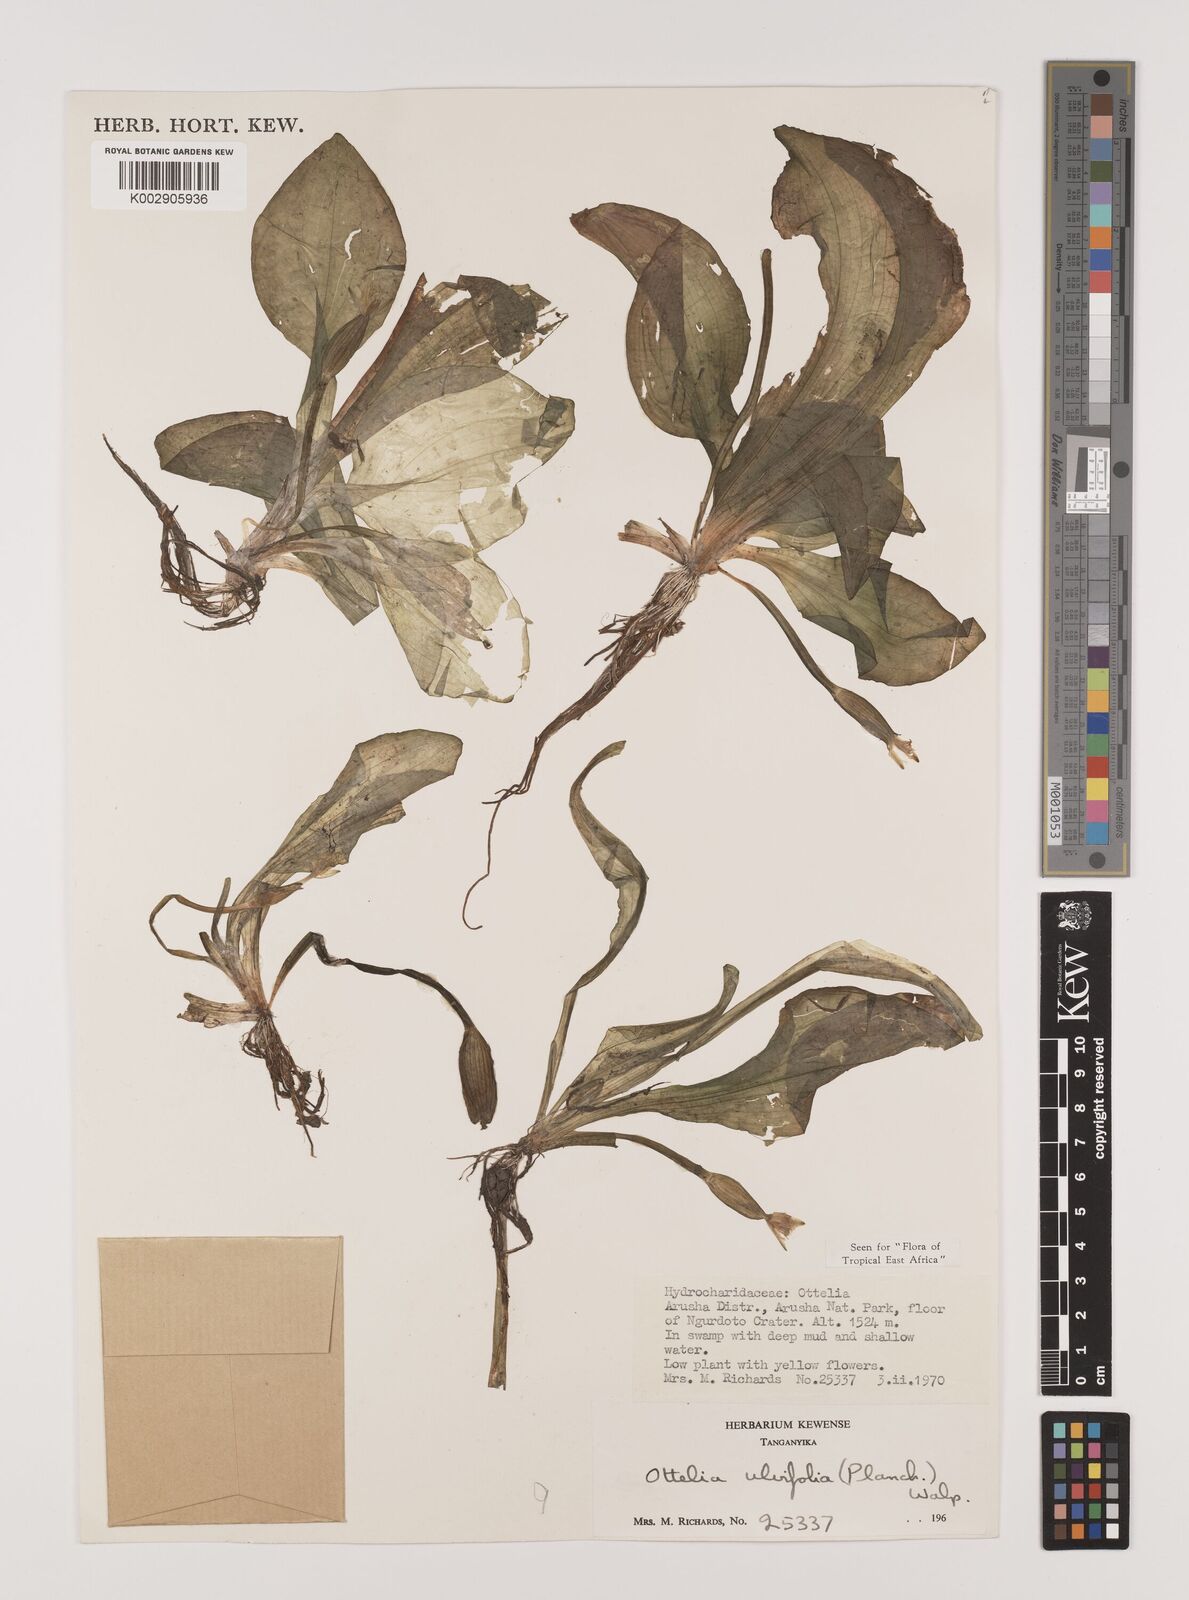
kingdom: Plantae
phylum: Tracheophyta
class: Liliopsida
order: Alismatales
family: Hydrocharitaceae
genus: Ottelia
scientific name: Ottelia ulvifolia
